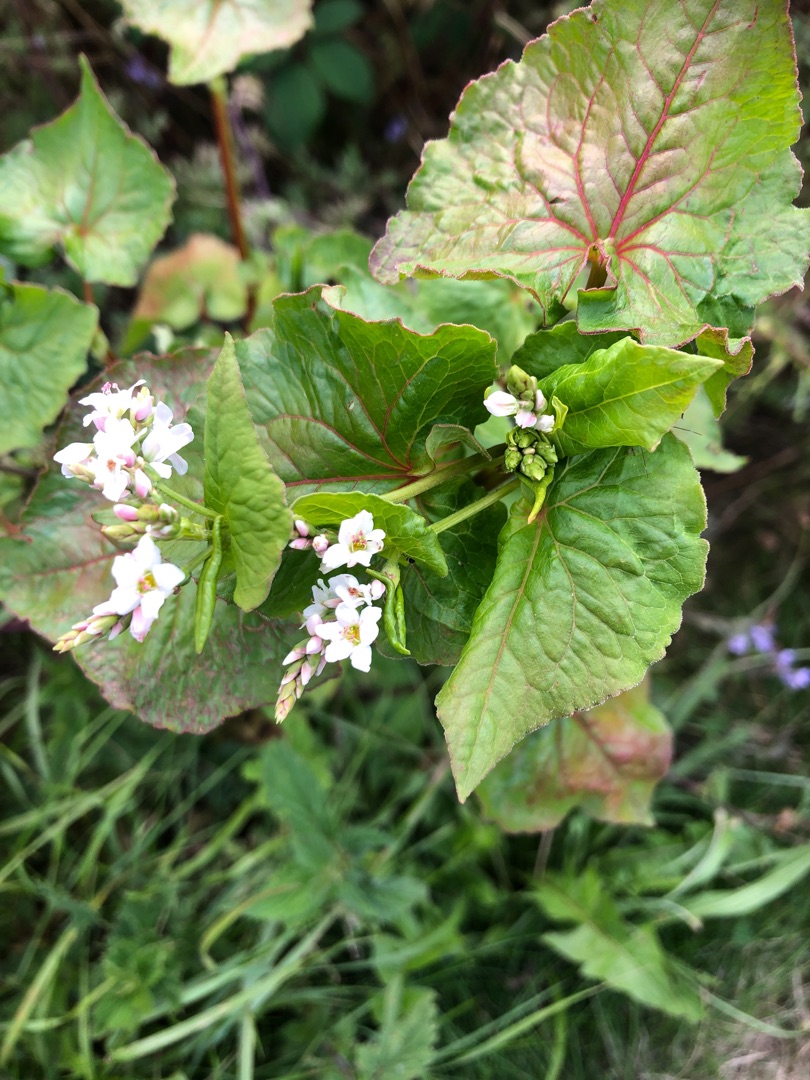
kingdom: Plantae
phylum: Tracheophyta
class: Magnoliopsida
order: Caryophyllales
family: Polygonaceae
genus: Fagopyrum
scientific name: Fagopyrum esculentum
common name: Almindelig boghvede
